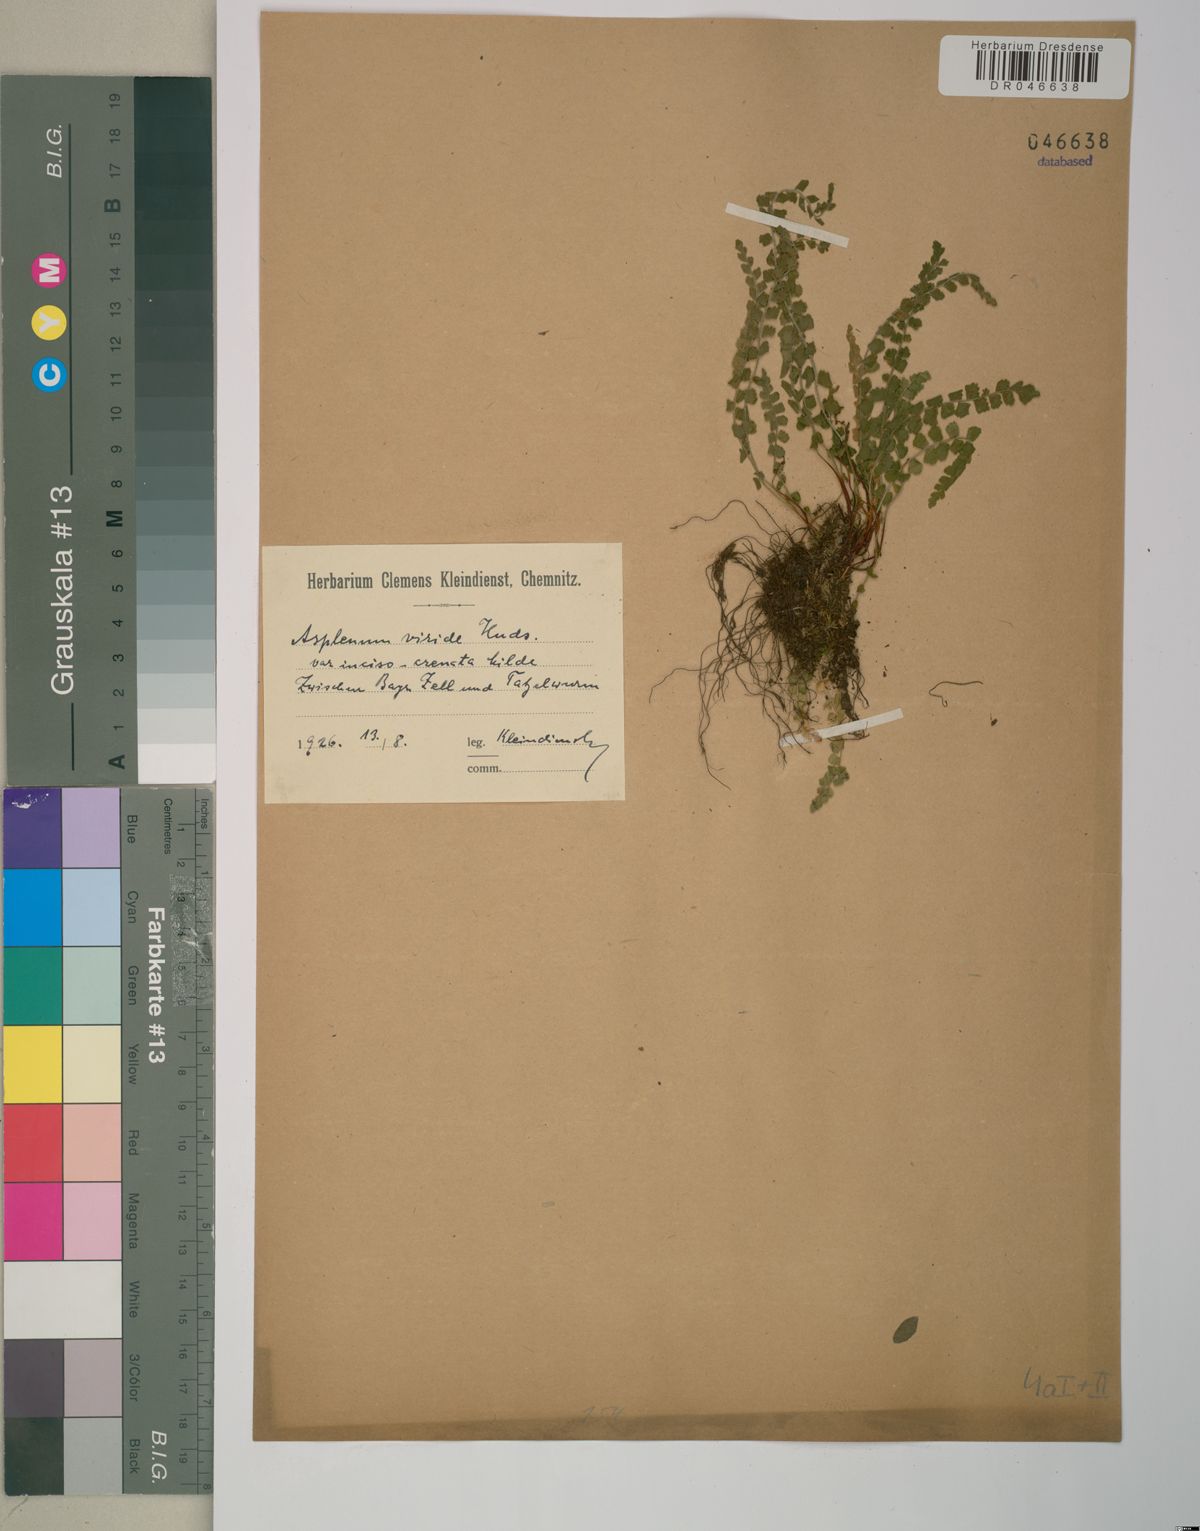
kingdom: Plantae
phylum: Tracheophyta
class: Polypodiopsida
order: Polypodiales
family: Aspleniaceae
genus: Asplenium
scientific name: Asplenium viride
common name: Green spleenwort
